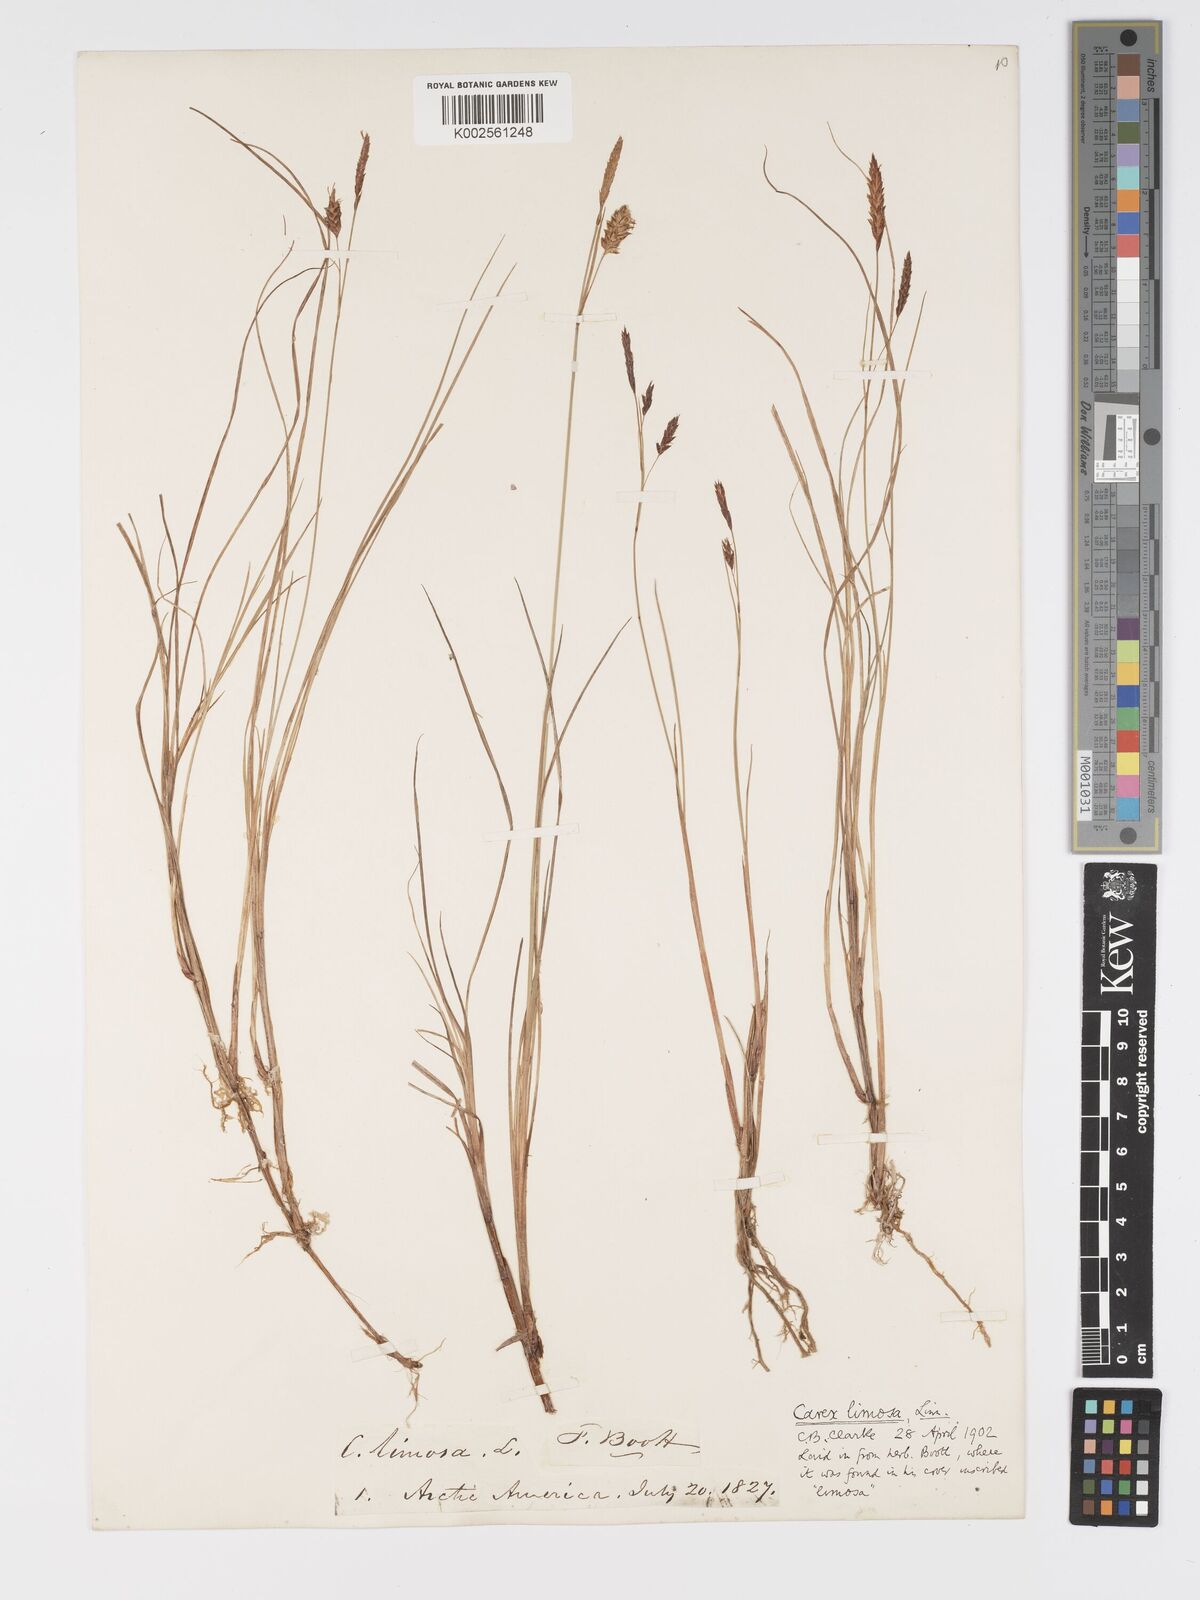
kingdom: Plantae
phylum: Tracheophyta
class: Liliopsida
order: Poales
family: Cyperaceae
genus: Carex
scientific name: Carex limosa
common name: Bog sedge
